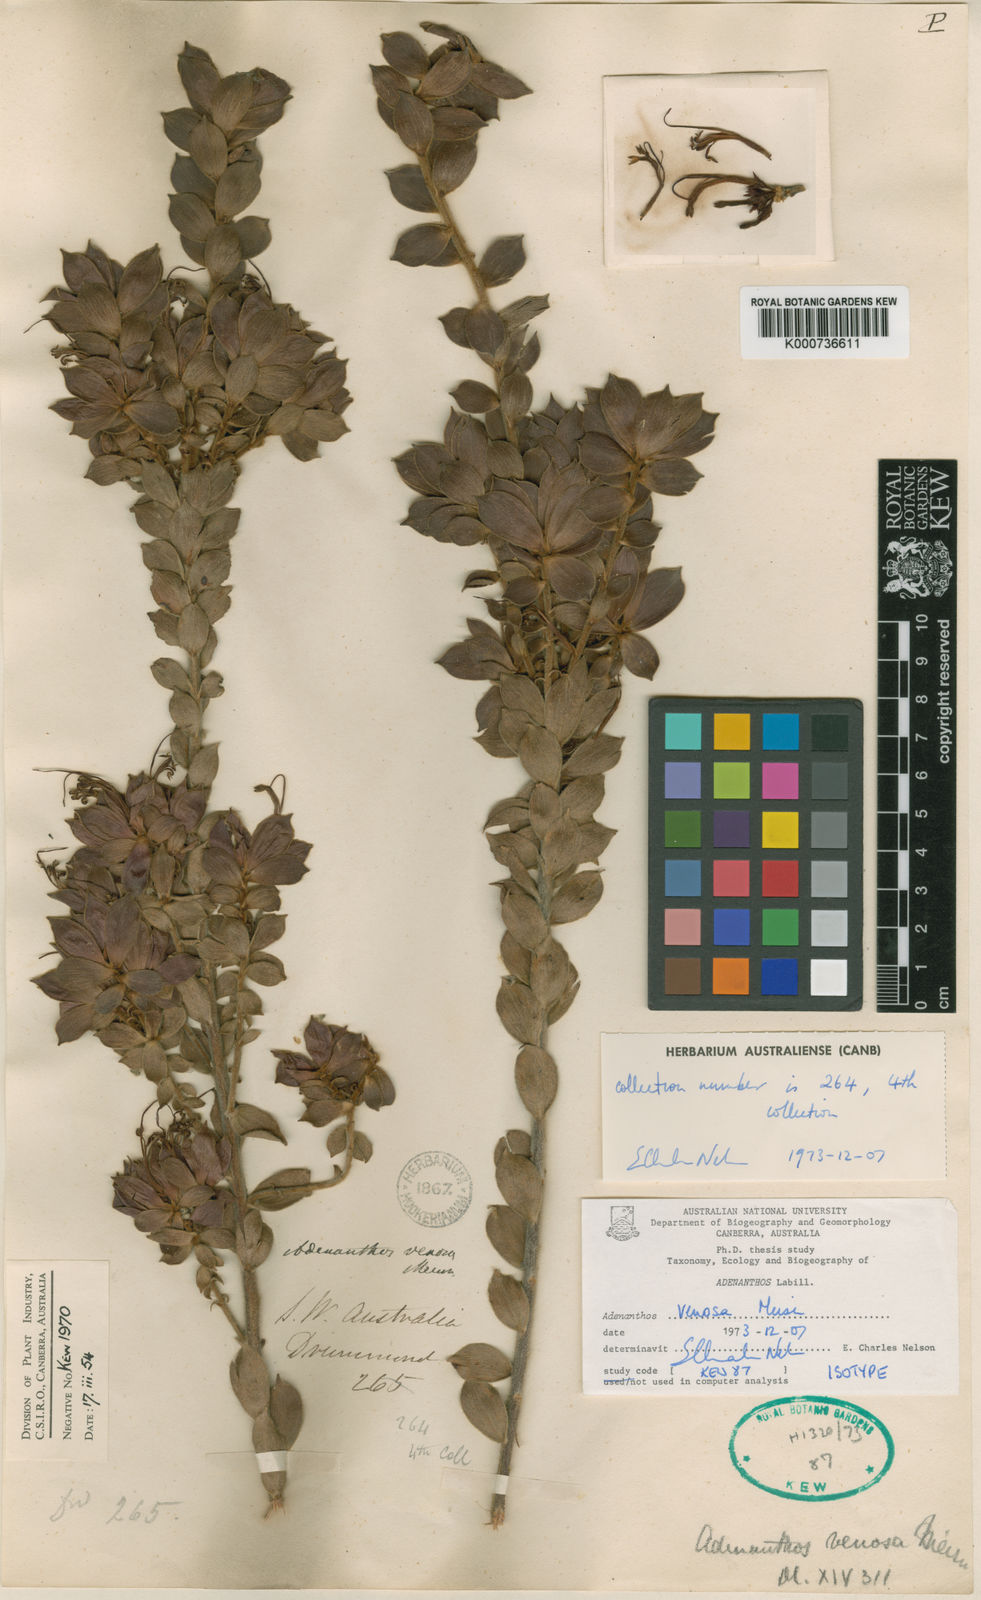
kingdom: Plantae
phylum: Tracheophyta
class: Magnoliopsida
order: Proteales
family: Proteaceae
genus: Adenanthos
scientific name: Adenanthos venosus
